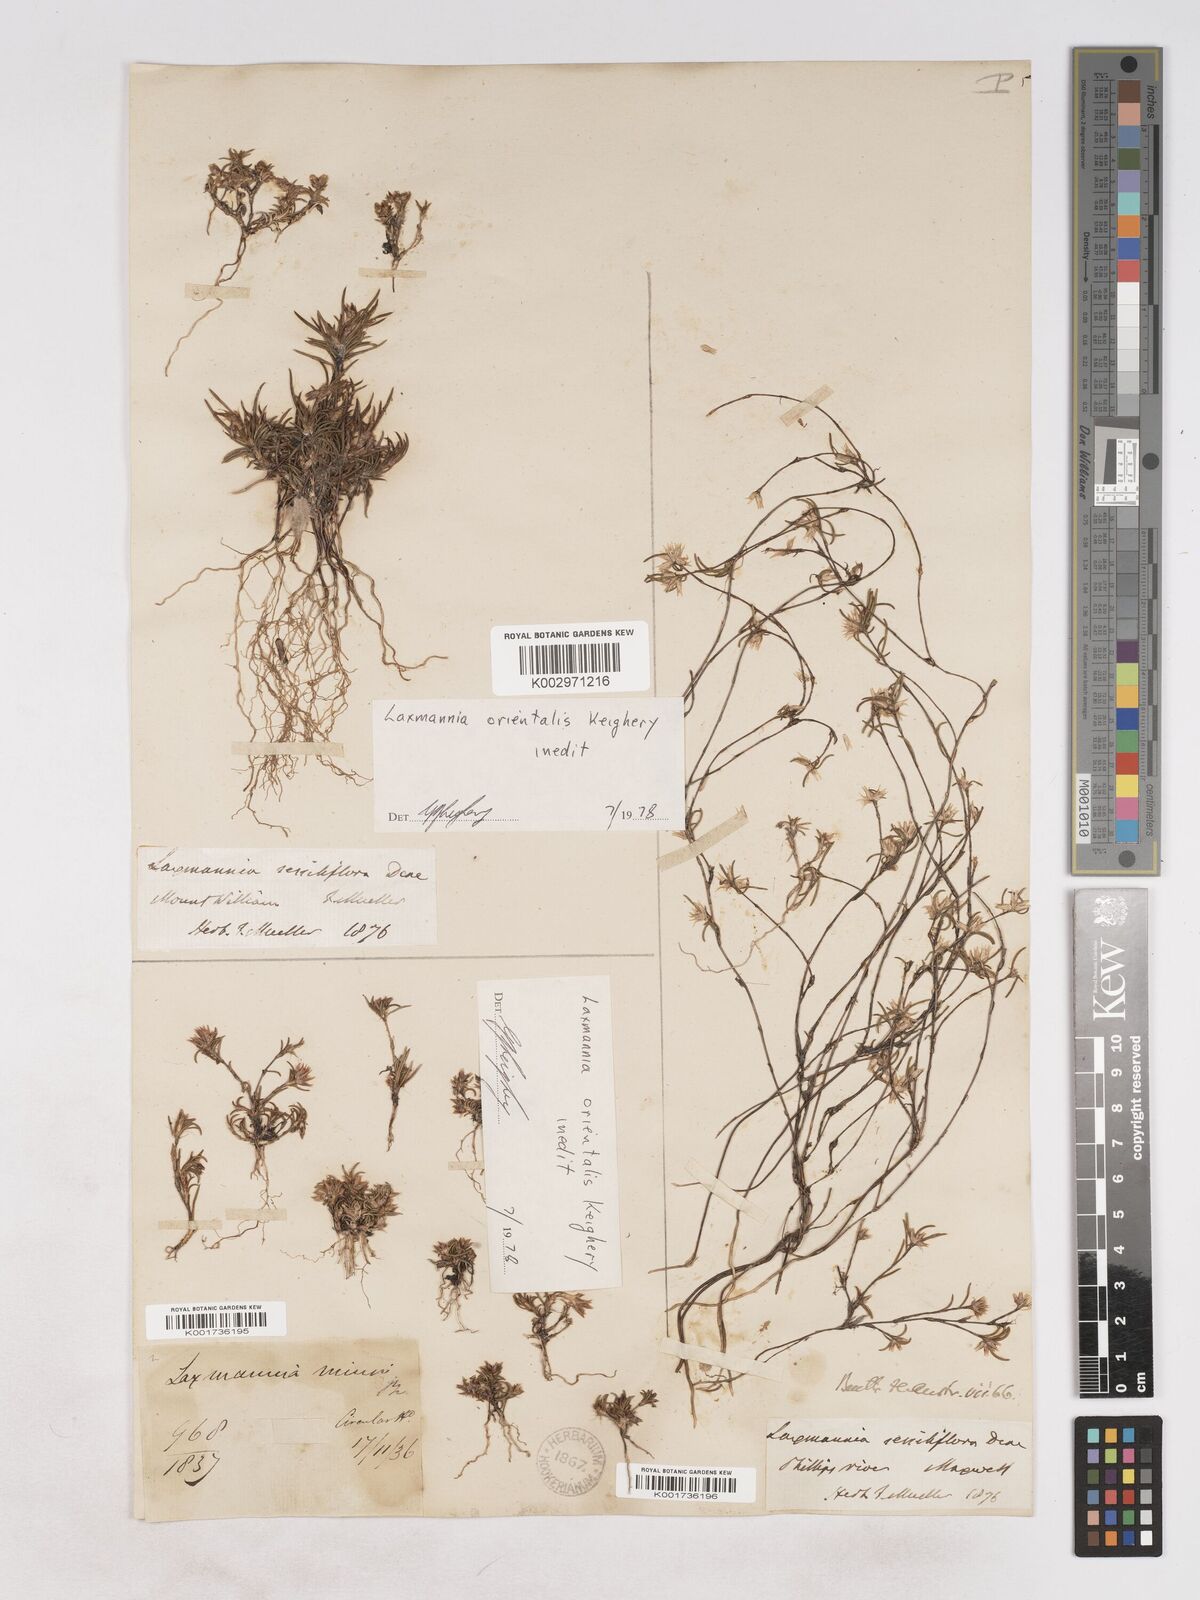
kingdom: Plantae
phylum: Tracheophyta
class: Liliopsida
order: Asparagales
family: Asparagaceae
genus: Laxmannia
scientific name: Laxmannia orientalis
